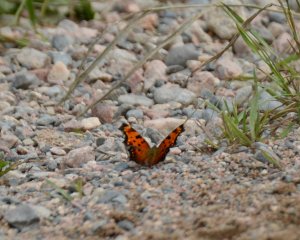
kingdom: Animalia
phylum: Arthropoda
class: Insecta
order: Lepidoptera
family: Nymphalidae
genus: Polygonia
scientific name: Polygonia progne
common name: Gray Comma
